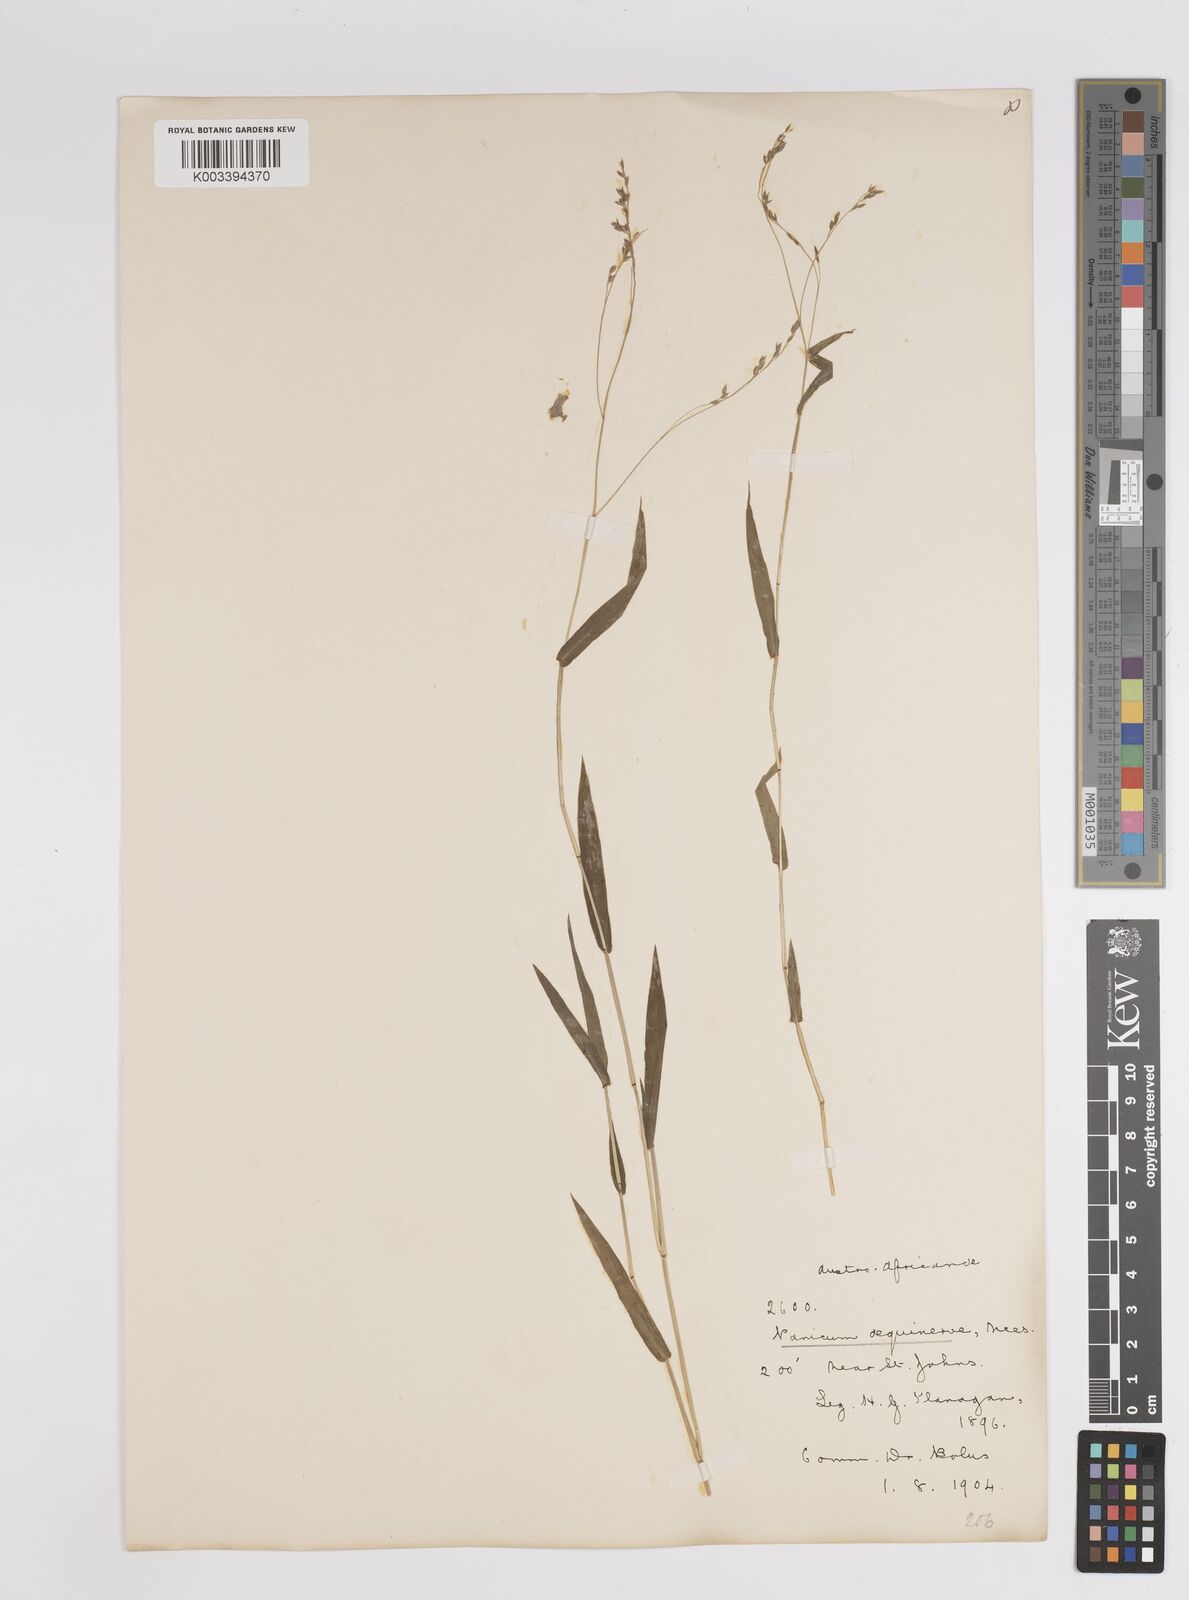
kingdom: Plantae
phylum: Tracheophyta
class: Liliopsida
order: Poales
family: Poaceae
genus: Panicum
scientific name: Panicum aequinerve
